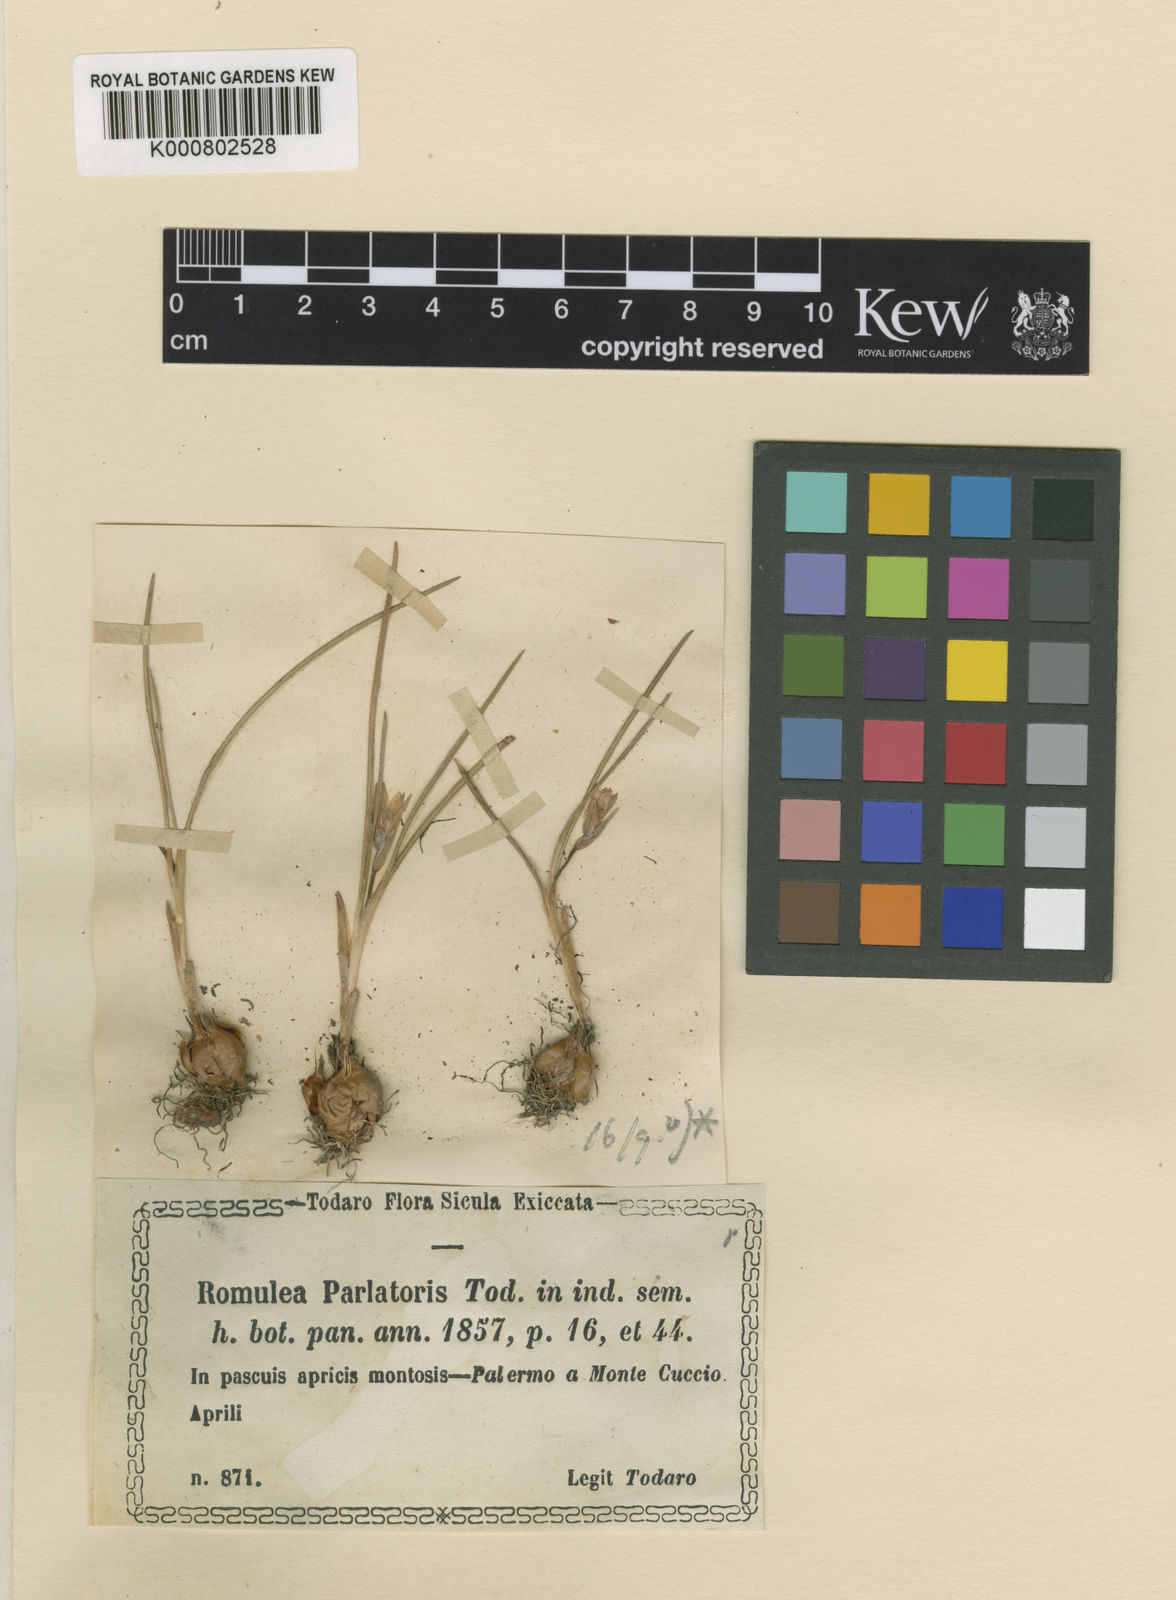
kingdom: Plantae
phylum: Tracheophyta
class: Liliopsida
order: Asparagales
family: Iridaceae
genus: Romulea
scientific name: Romulea columnae
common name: Sand-crocus
